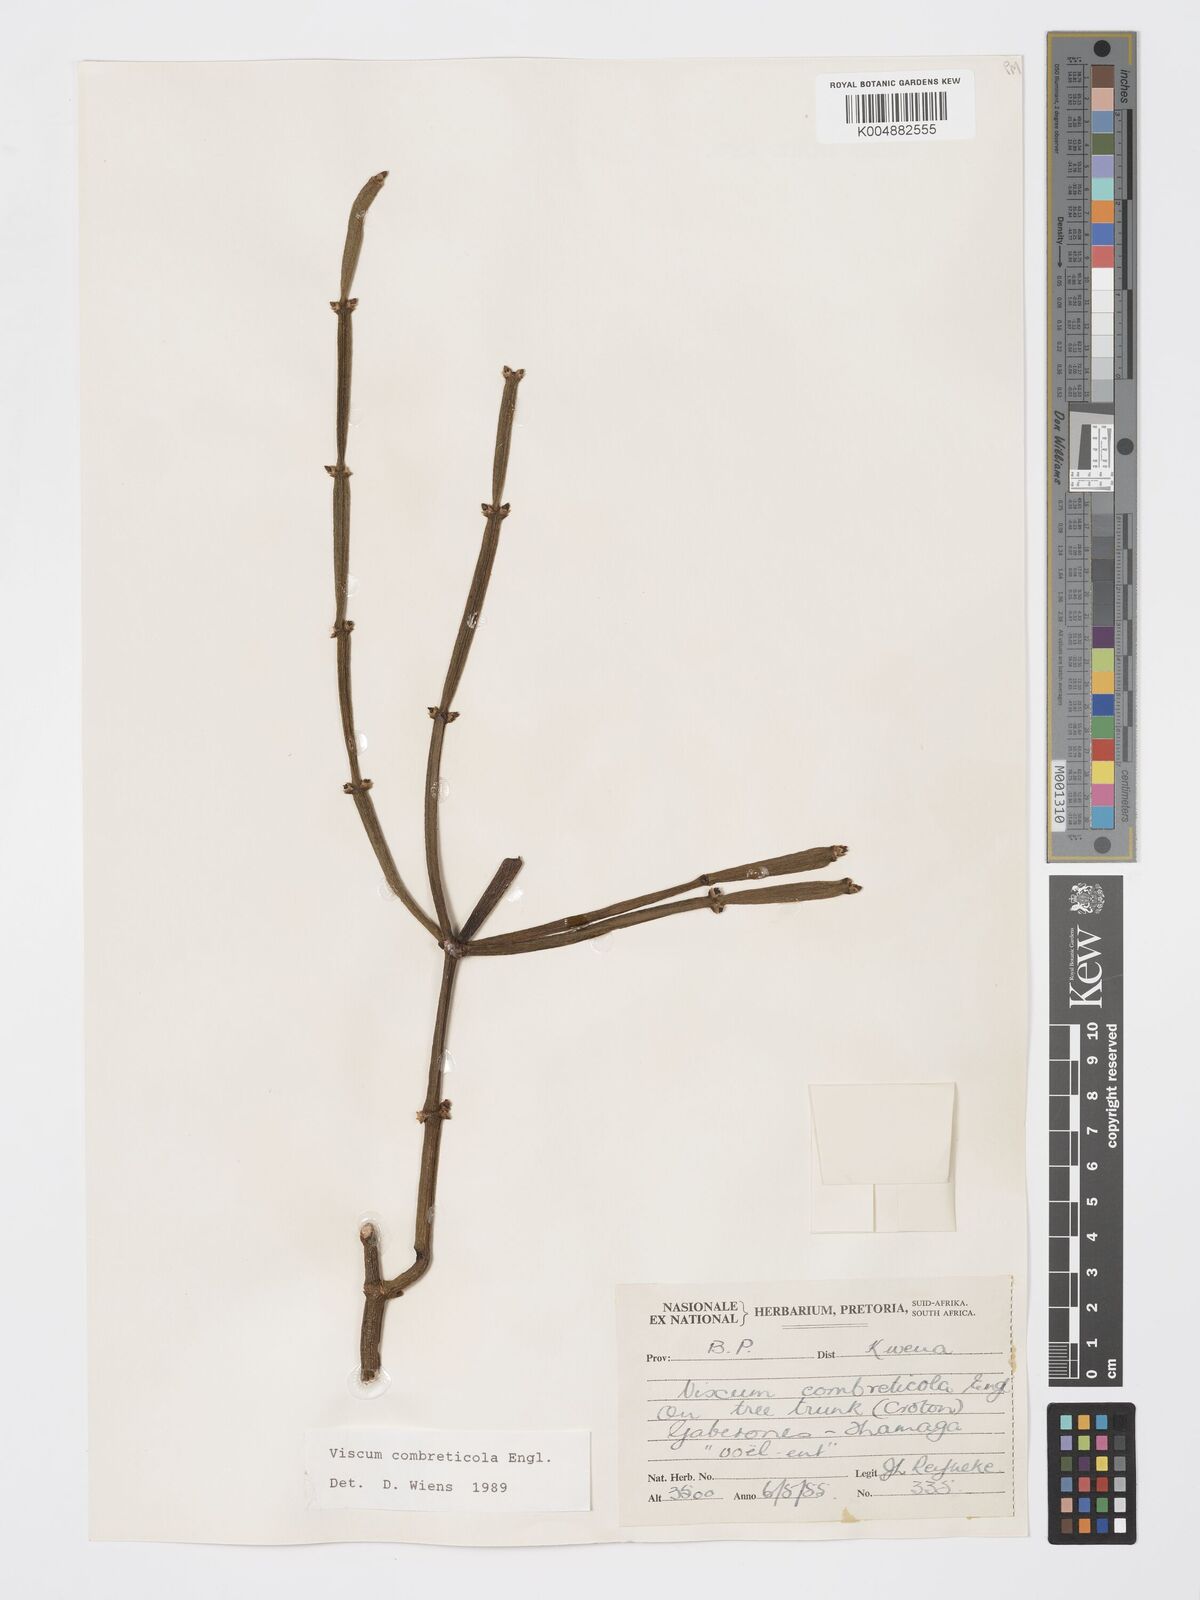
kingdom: Plantae
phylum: Tracheophyta
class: Magnoliopsida
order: Santalales
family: Viscaceae
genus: Viscum
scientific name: Viscum combreticola
